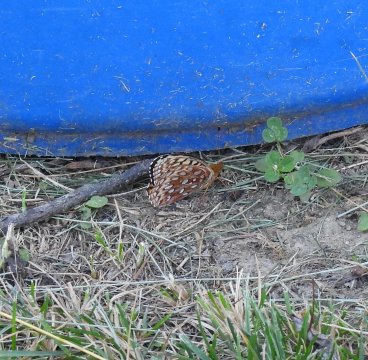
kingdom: Animalia
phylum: Arthropoda
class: Insecta
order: Lepidoptera
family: Nymphalidae
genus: Speyeria
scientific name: Speyeria aphrodite
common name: Aphrodite Fritillary
